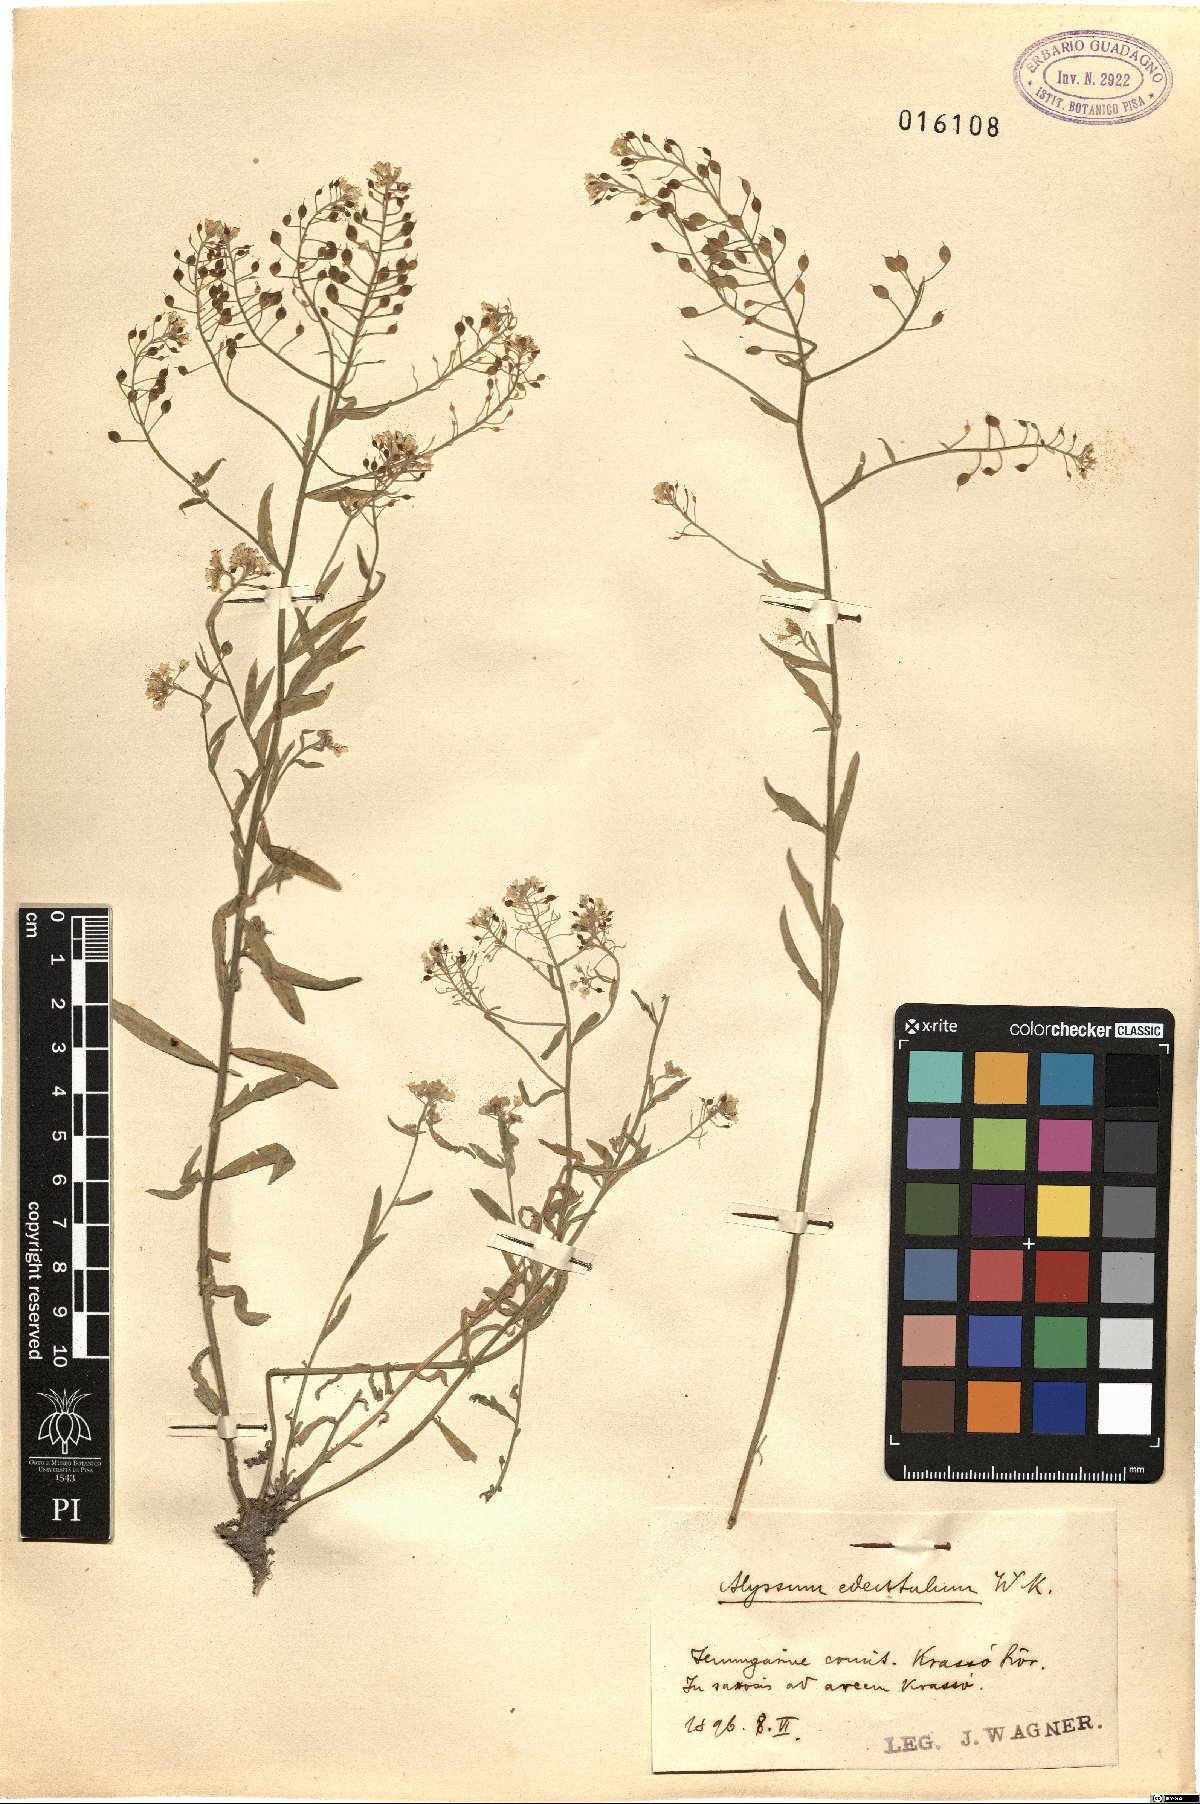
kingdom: Plantae
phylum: Tracheophyta
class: Magnoliopsida
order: Brassicales
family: Brassicaceae
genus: Aurinia
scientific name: Aurinia petraea
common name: Goldentuft
